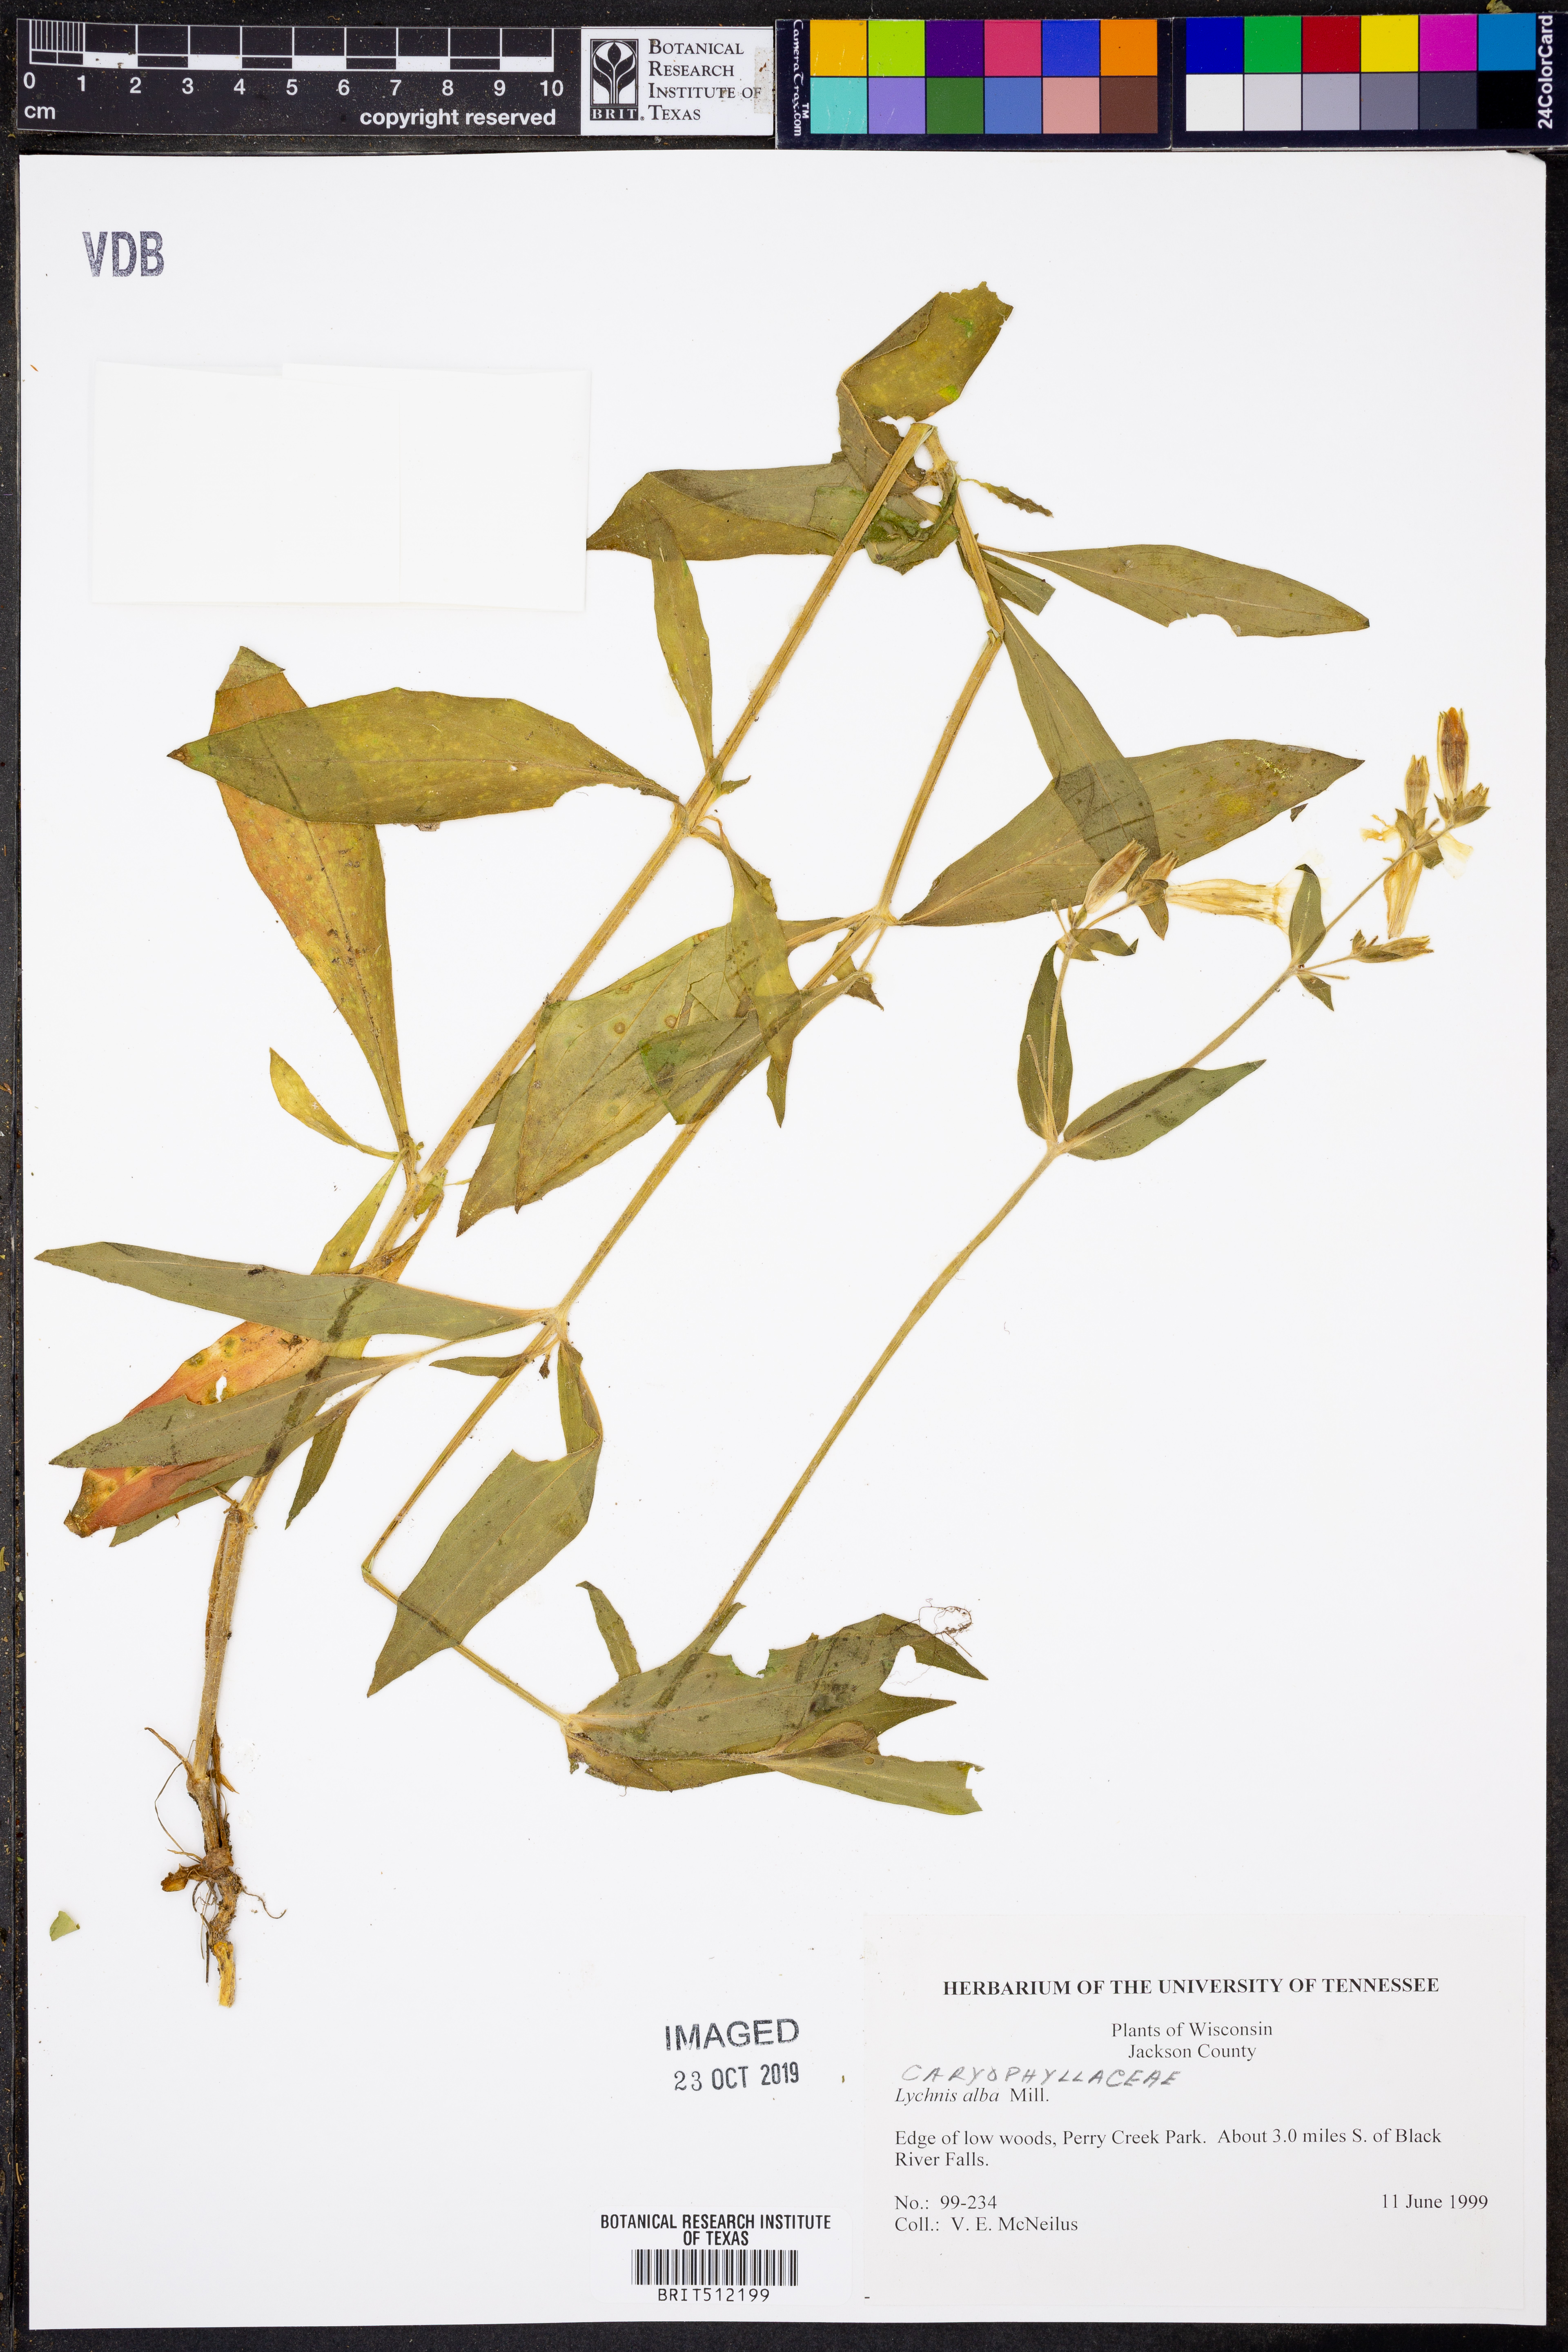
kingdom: Plantae
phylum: Tracheophyta
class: Magnoliopsida
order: Caryophyllales
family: Caryophyllaceae
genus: Silene
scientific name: Silene latifolia
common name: White campion
